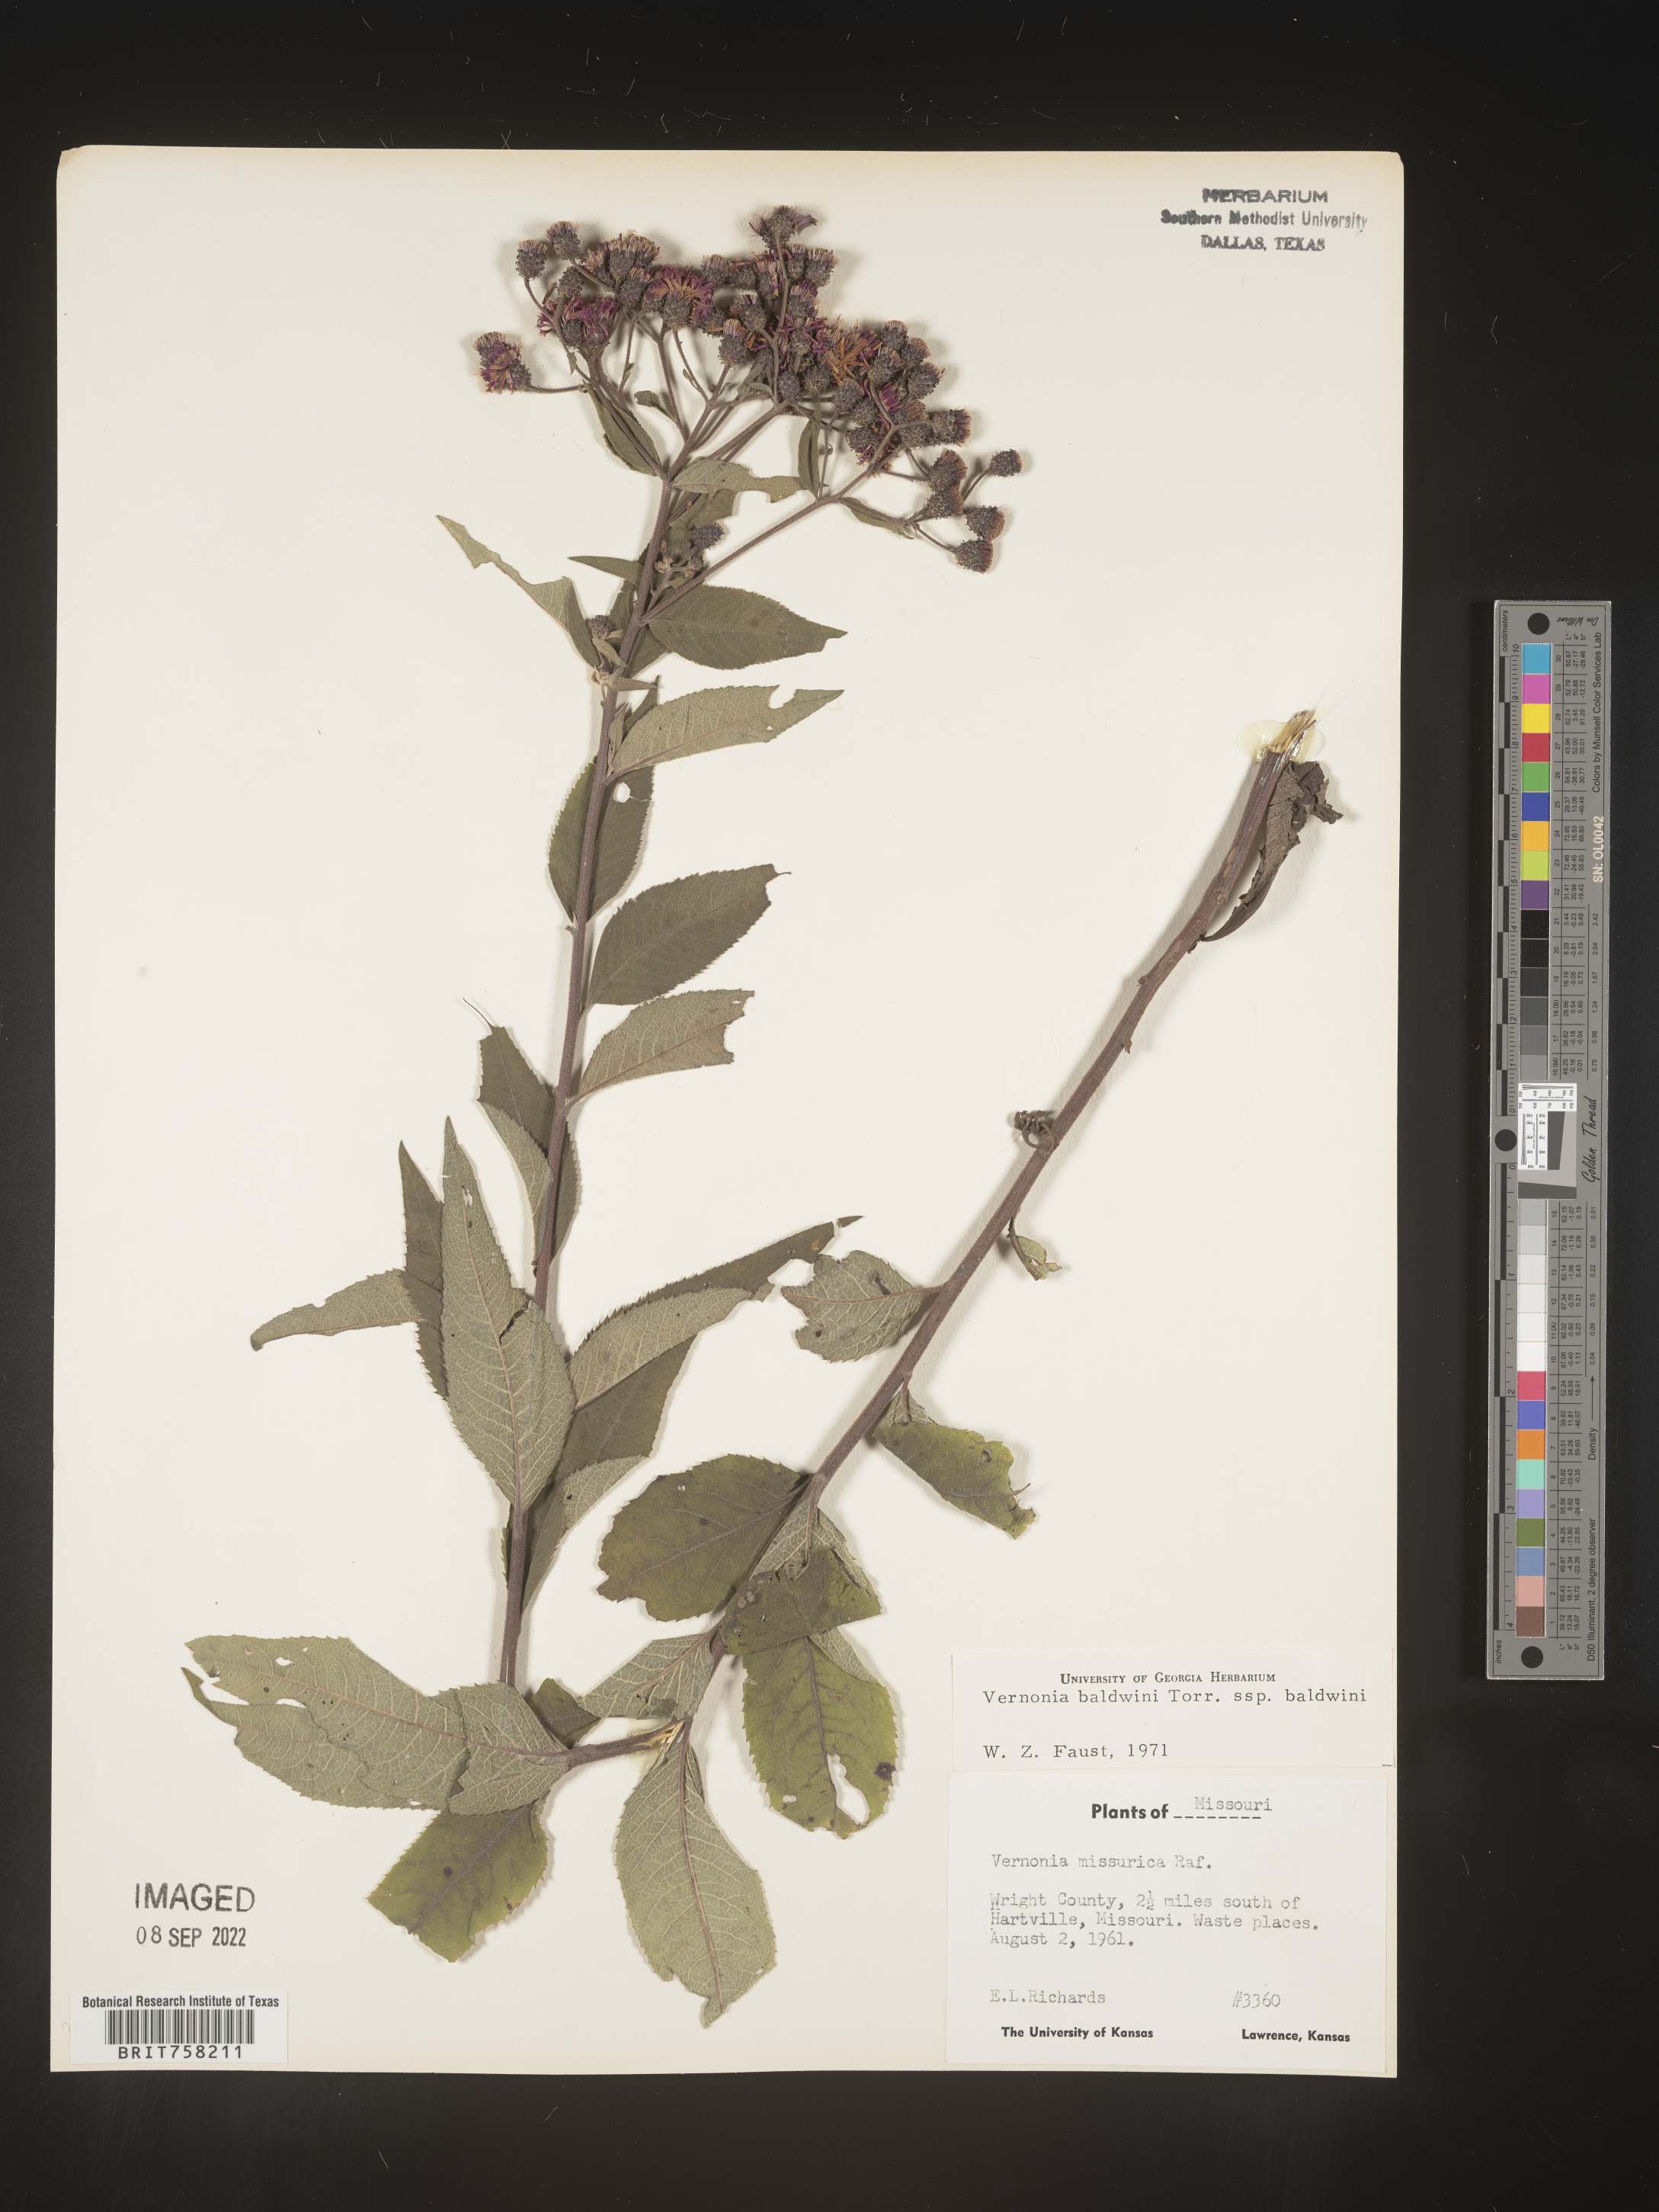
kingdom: Plantae
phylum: Tracheophyta
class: Magnoliopsida
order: Asterales
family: Asteraceae
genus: Vernonia
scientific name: Vernonia baldwinii
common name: Western ironweed
